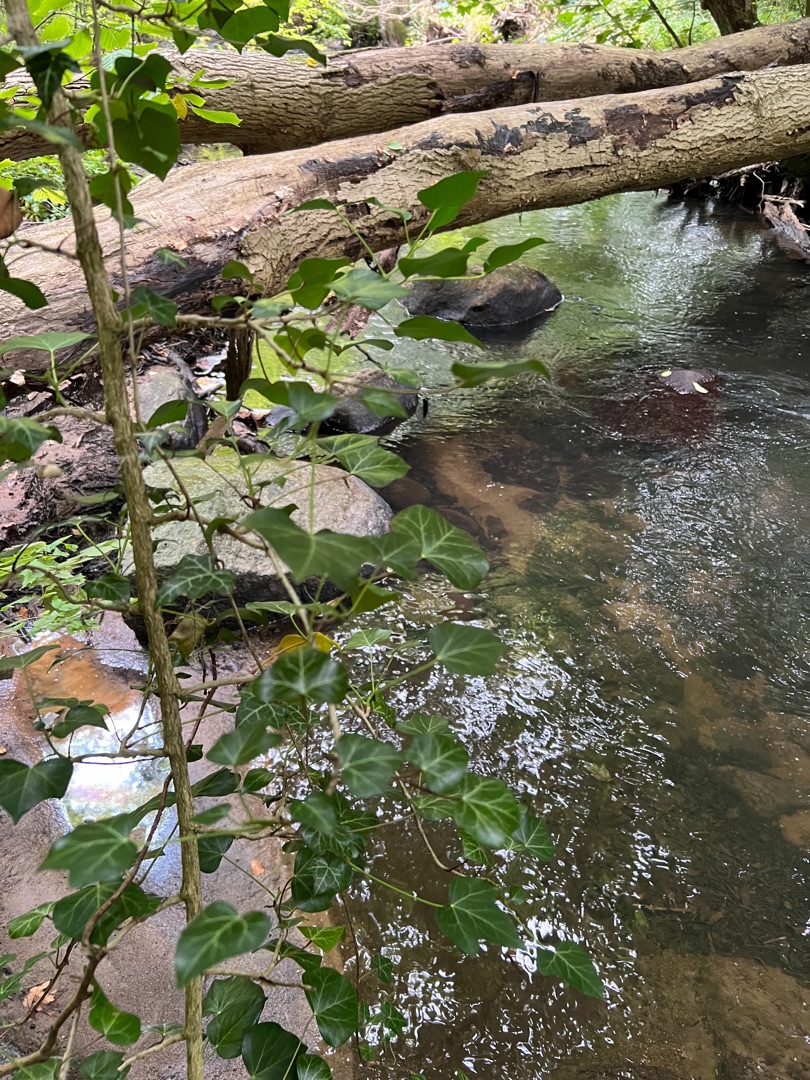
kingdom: Plantae
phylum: Tracheophyta
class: Magnoliopsida
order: Apiales
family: Araliaceae
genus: Hedera
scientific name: Hedera helix
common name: Vedbend
